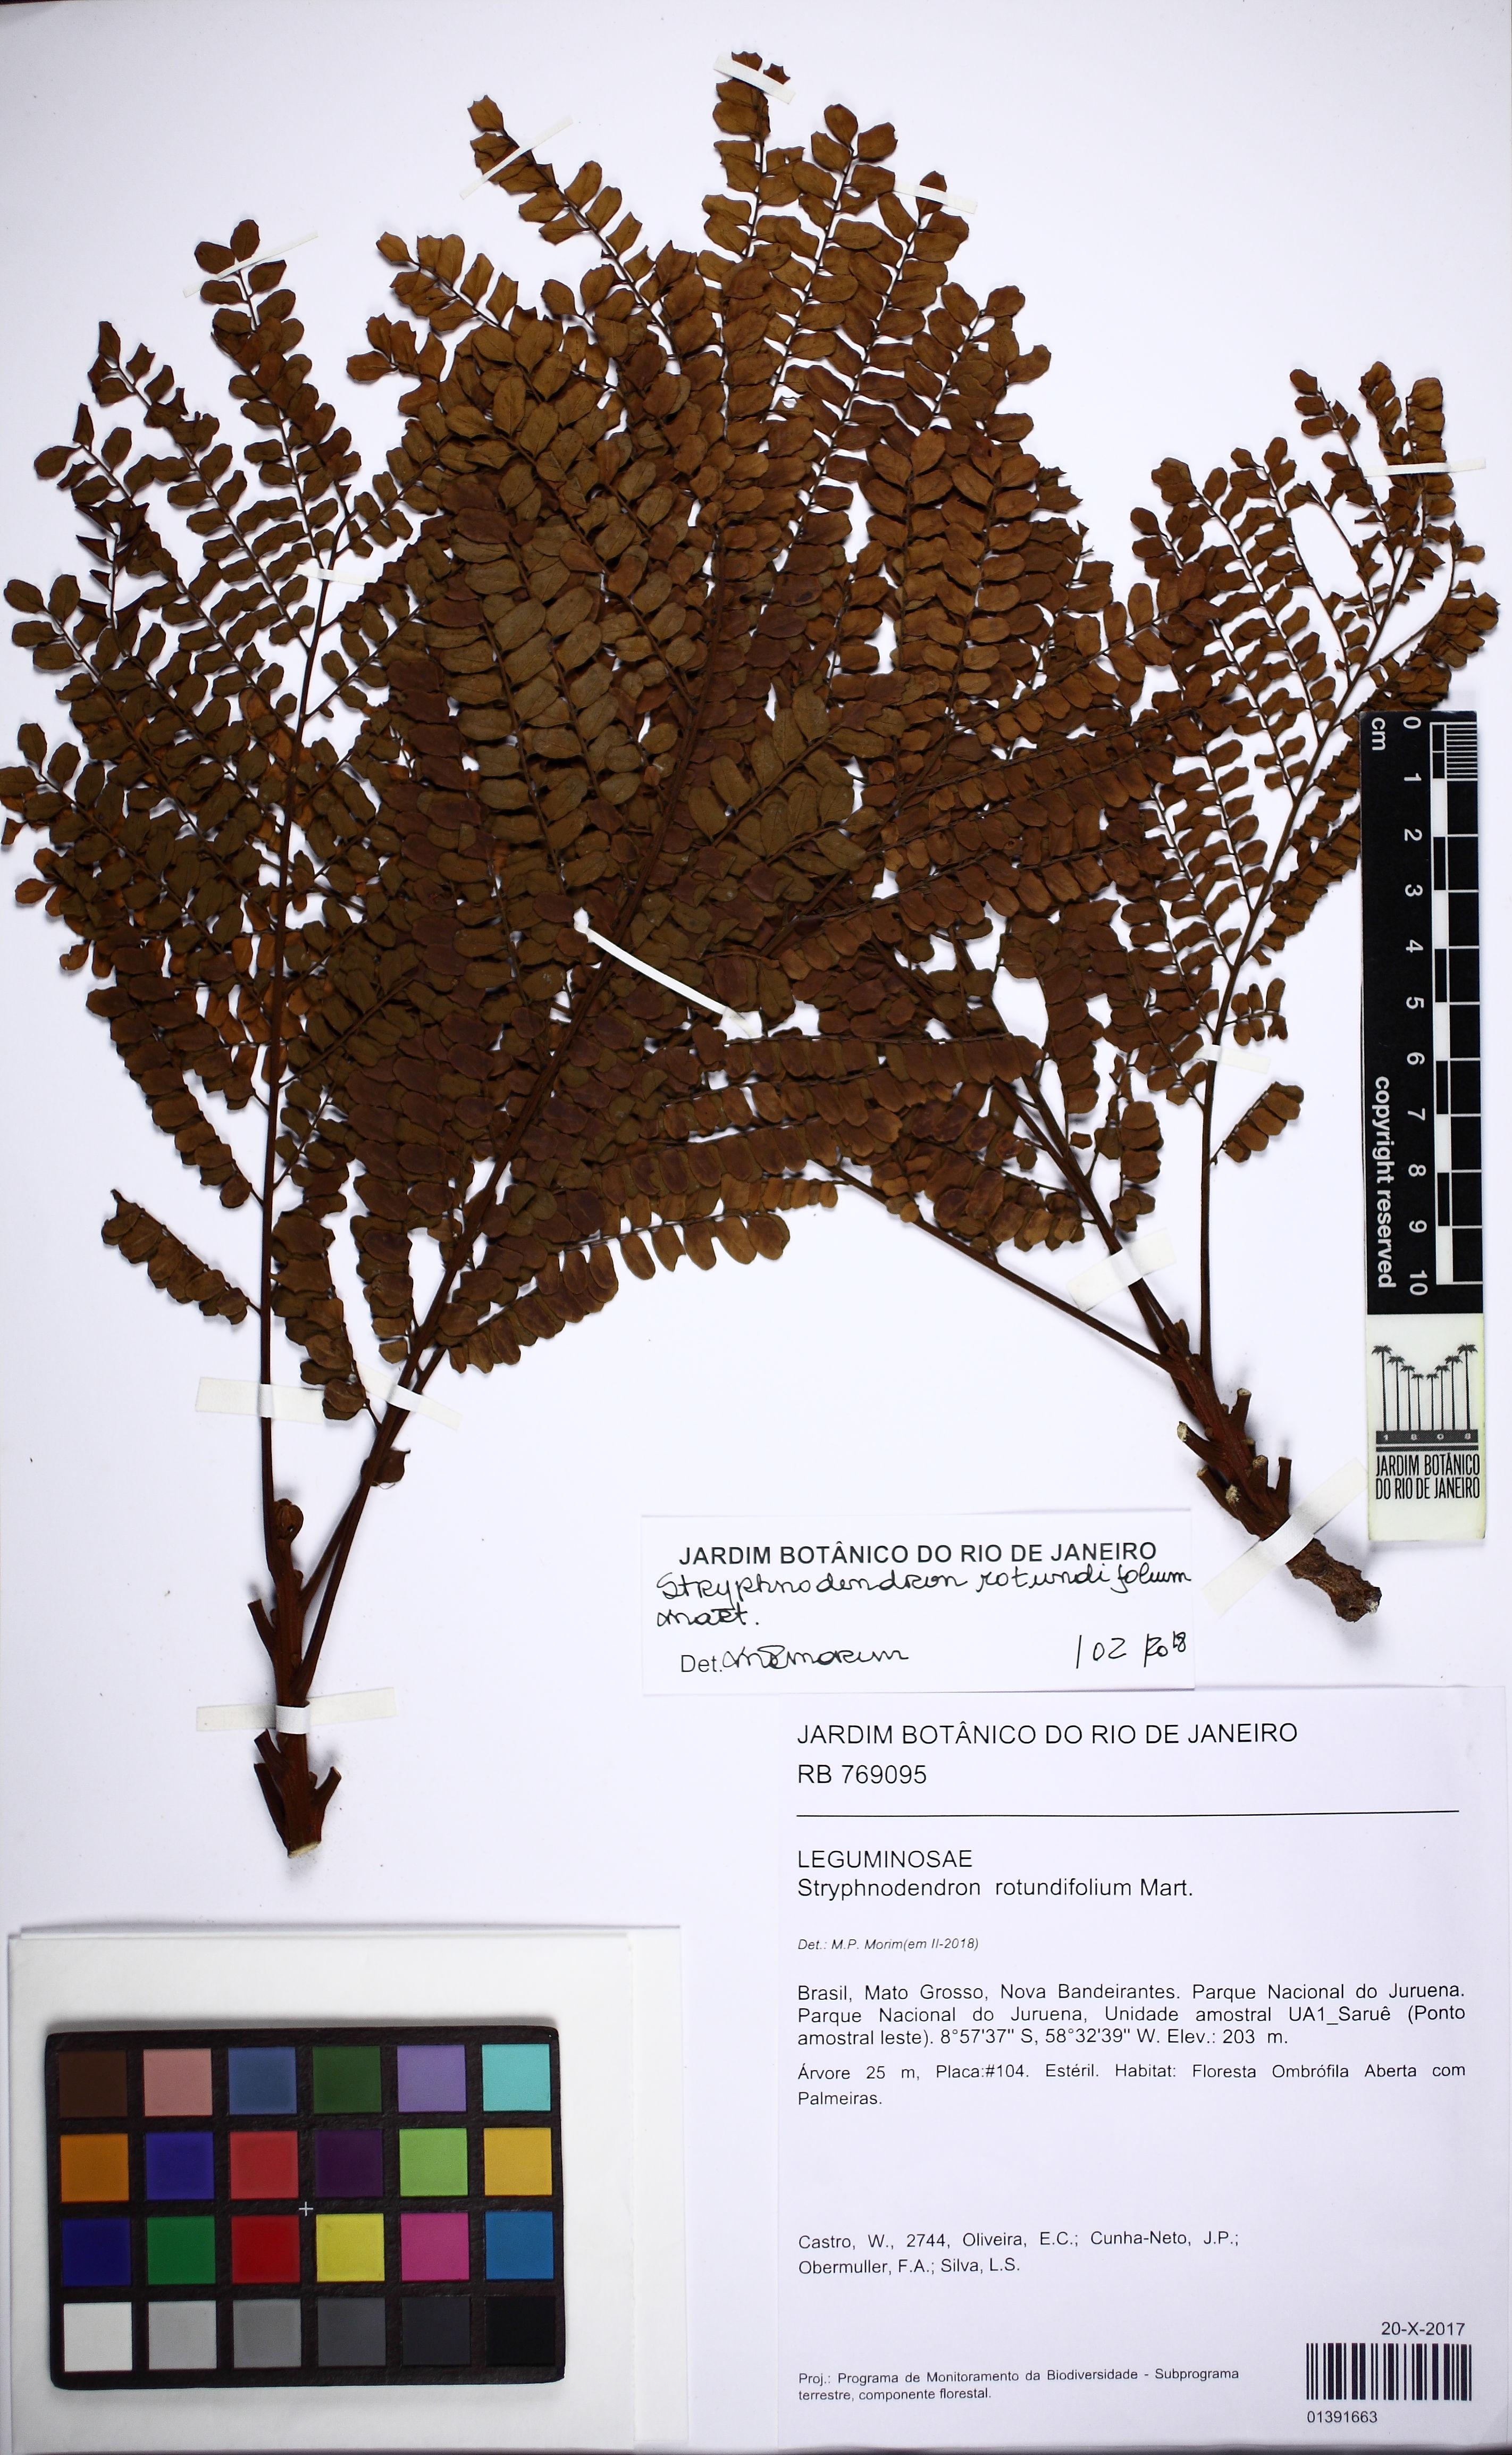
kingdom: Plantae
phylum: Tracheophyta
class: Magnoliopsida
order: Fabales
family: Fabaceae
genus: Stryphnodendron
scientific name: Stryphnodendron rotundifolium
